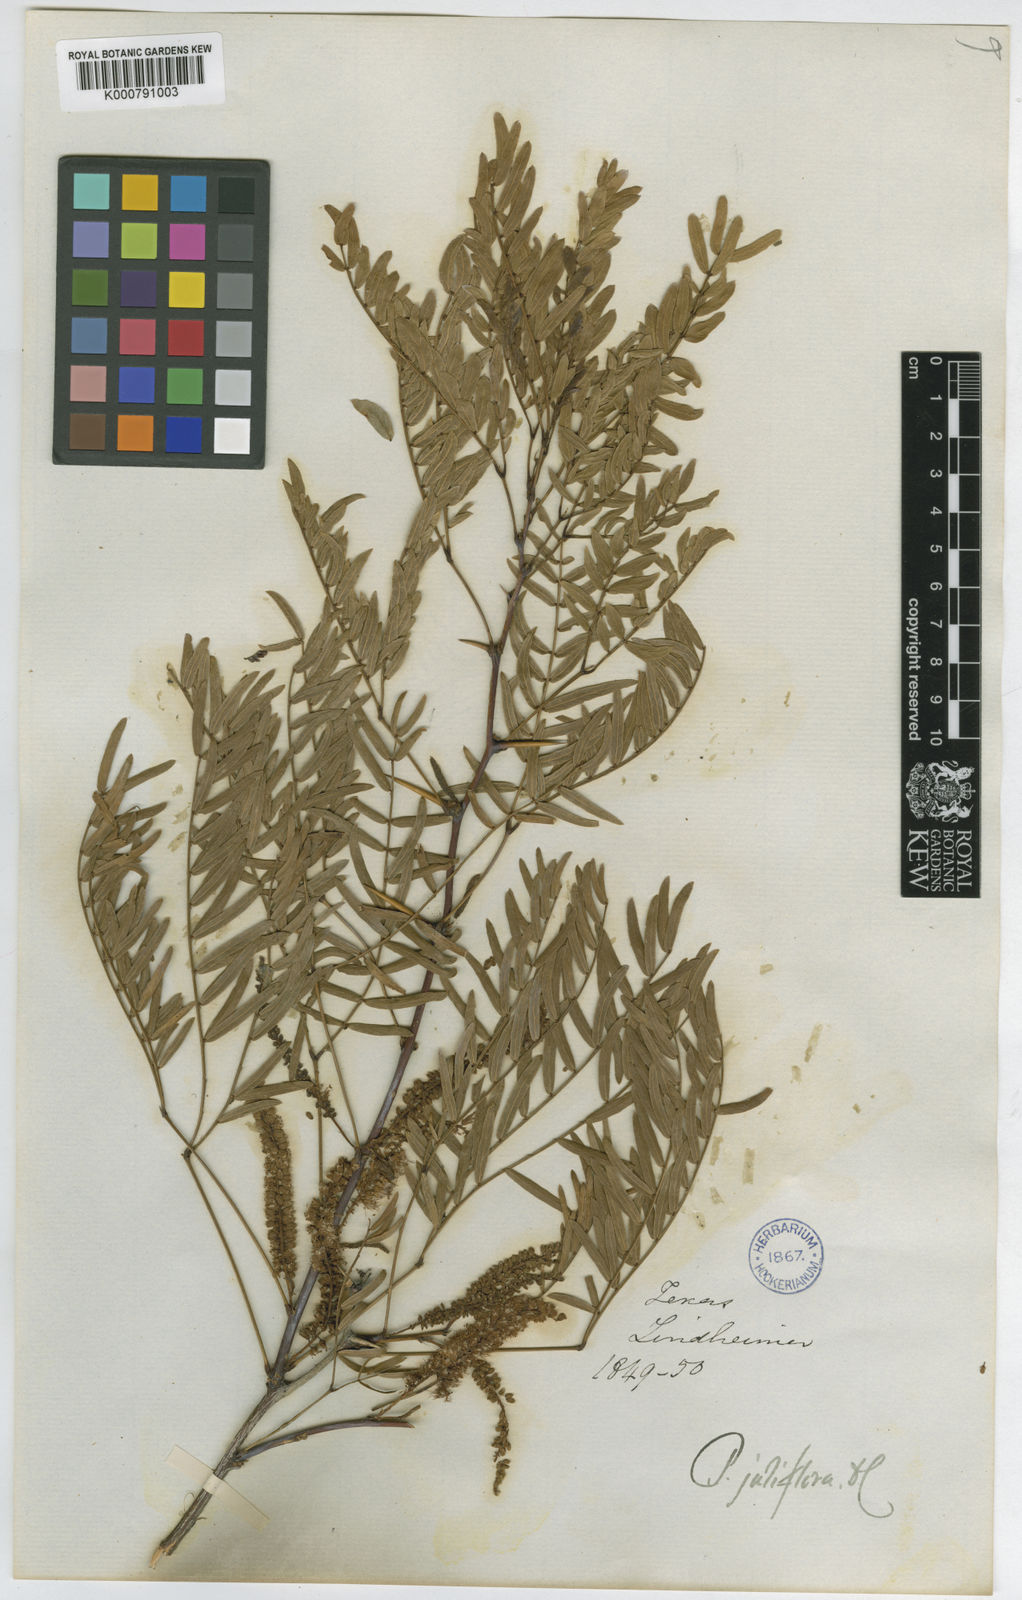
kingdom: Plantae
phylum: Tracheophyta
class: Magnoliopsida
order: Fabales
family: Fabaceae
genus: Prosopis
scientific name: Prosopis juliflora
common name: Mesquite
